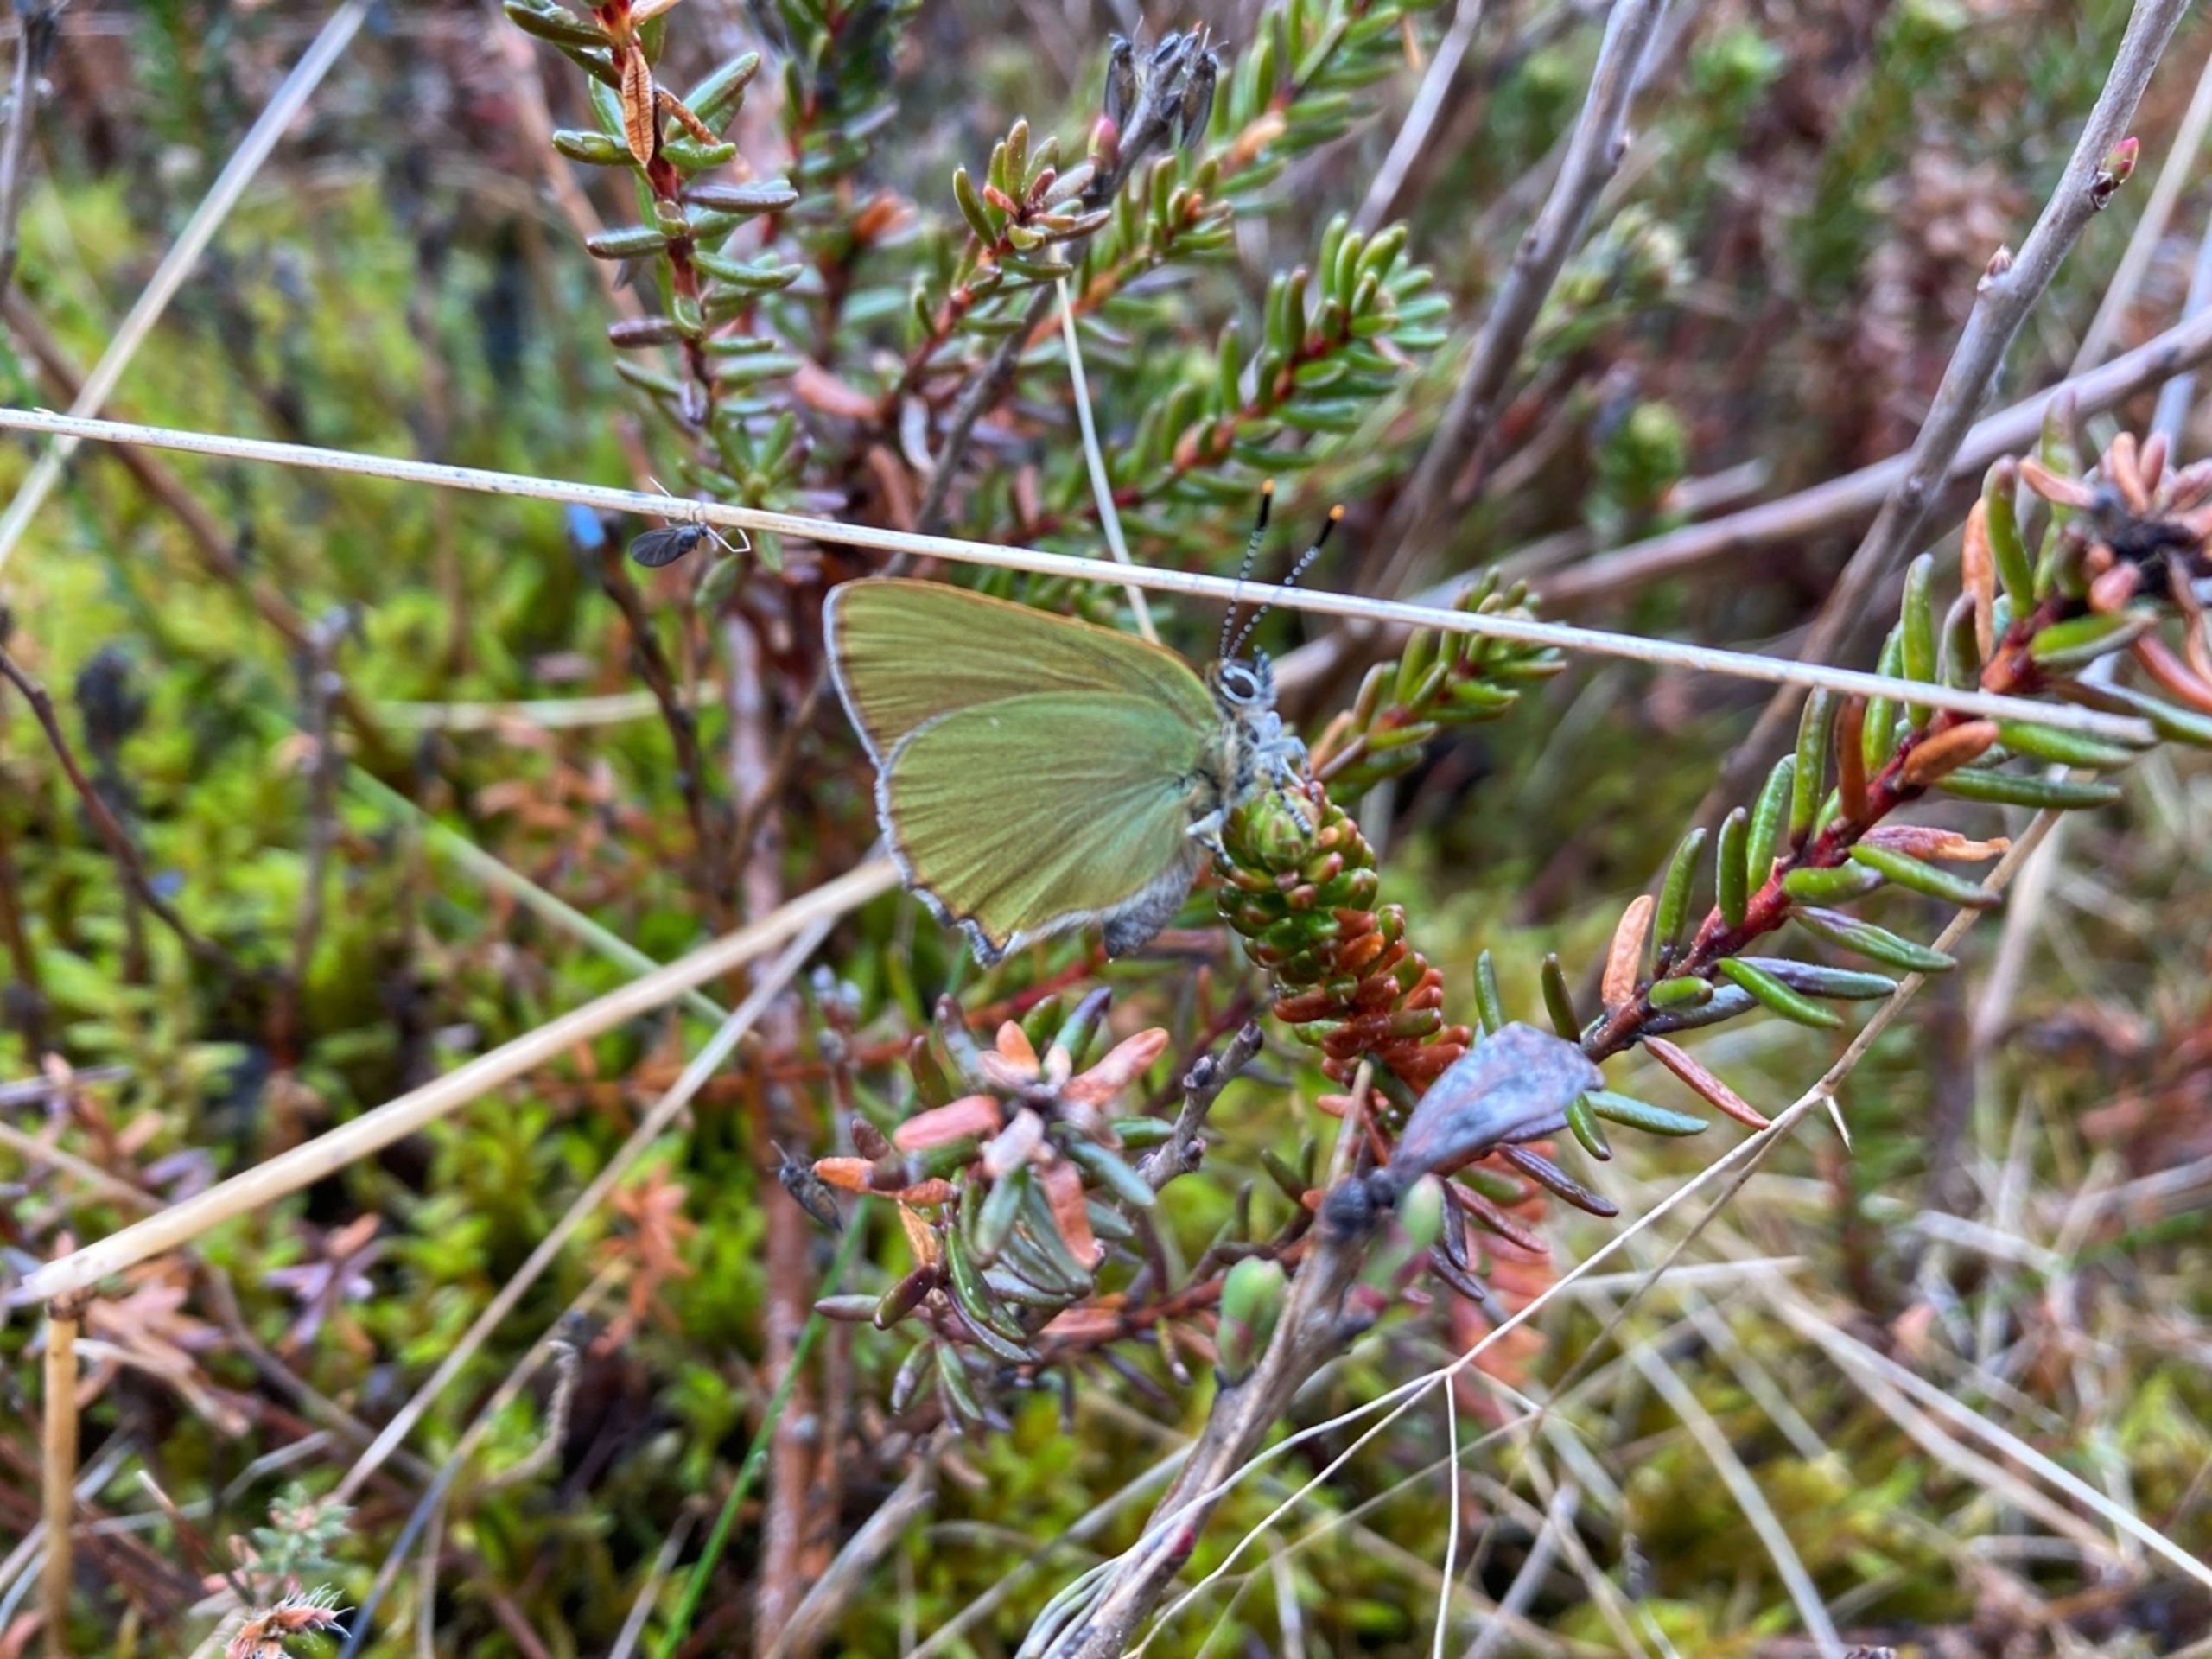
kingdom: Animalia
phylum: Arthropoda
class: Insecta
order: Lepidoptera
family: Lycaenidae
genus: Callophrys
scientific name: Callophrys rubi
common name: Grøn busksommerfugl
